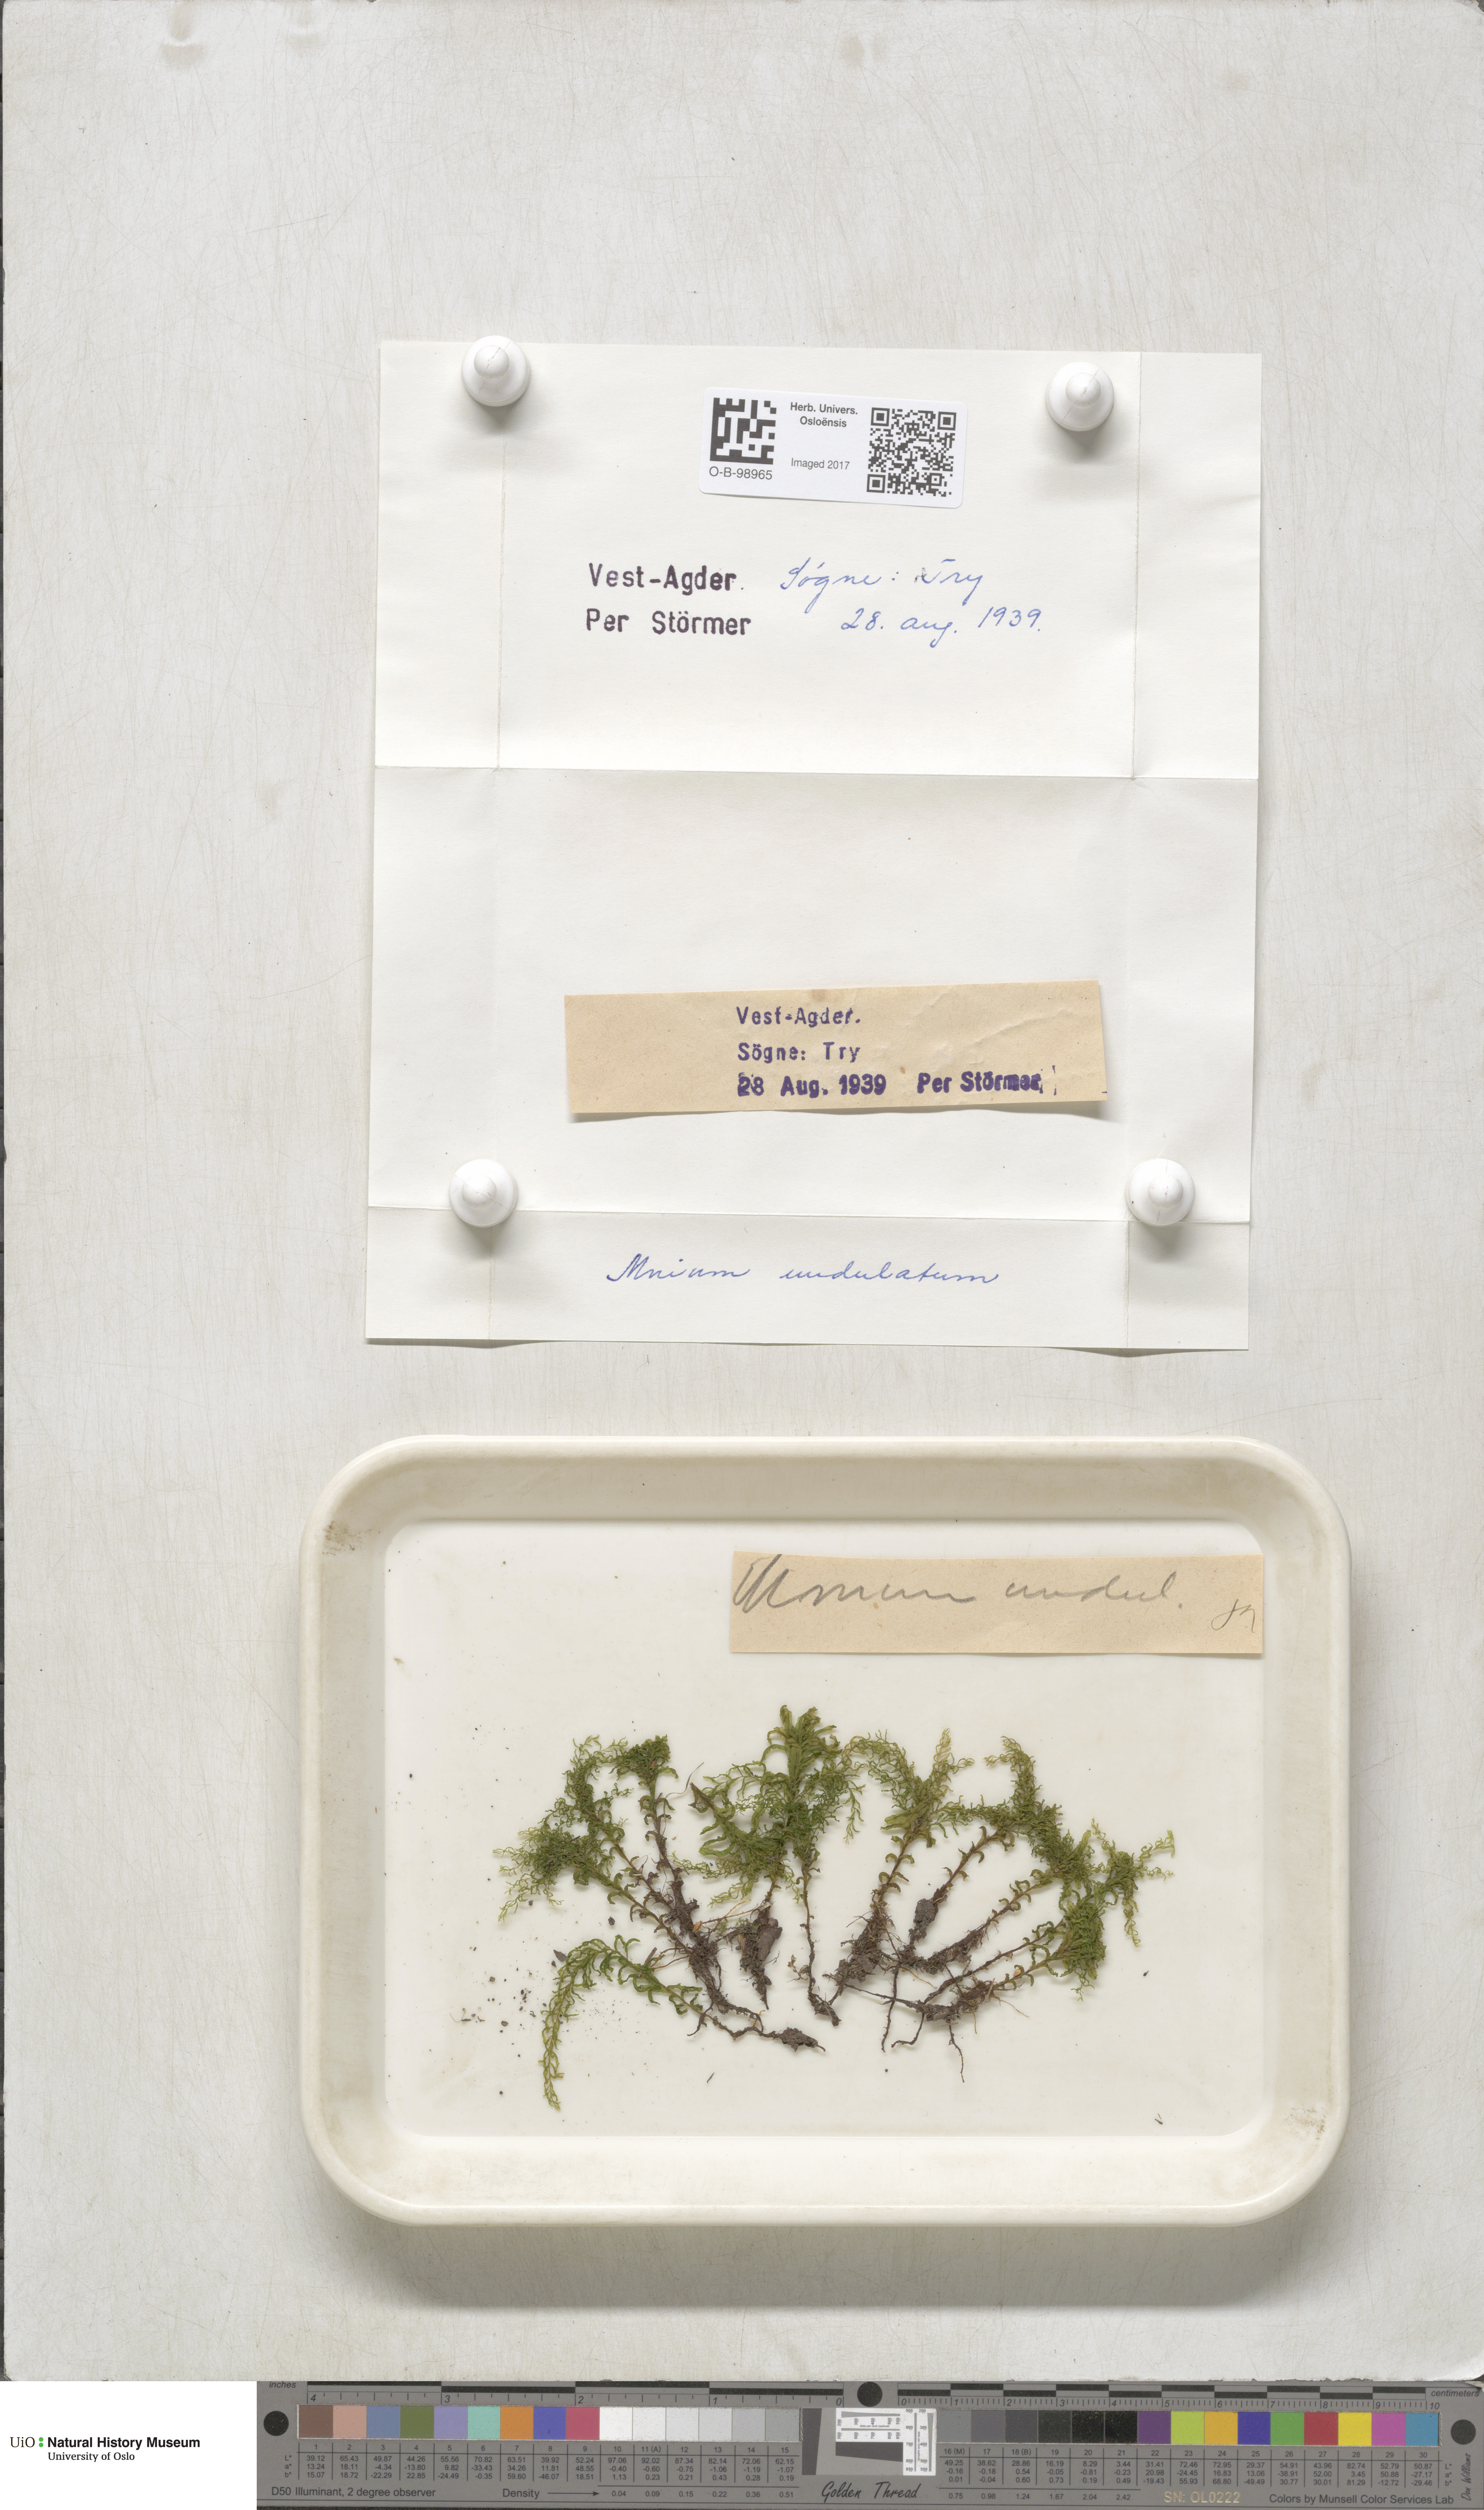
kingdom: Plantae
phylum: Bryophyta
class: Bryopsida
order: Bryales
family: Mniaceae
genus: Plagiomnium
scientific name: Plagiomnium undulatum
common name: Hart's-tongue thyme-moss
